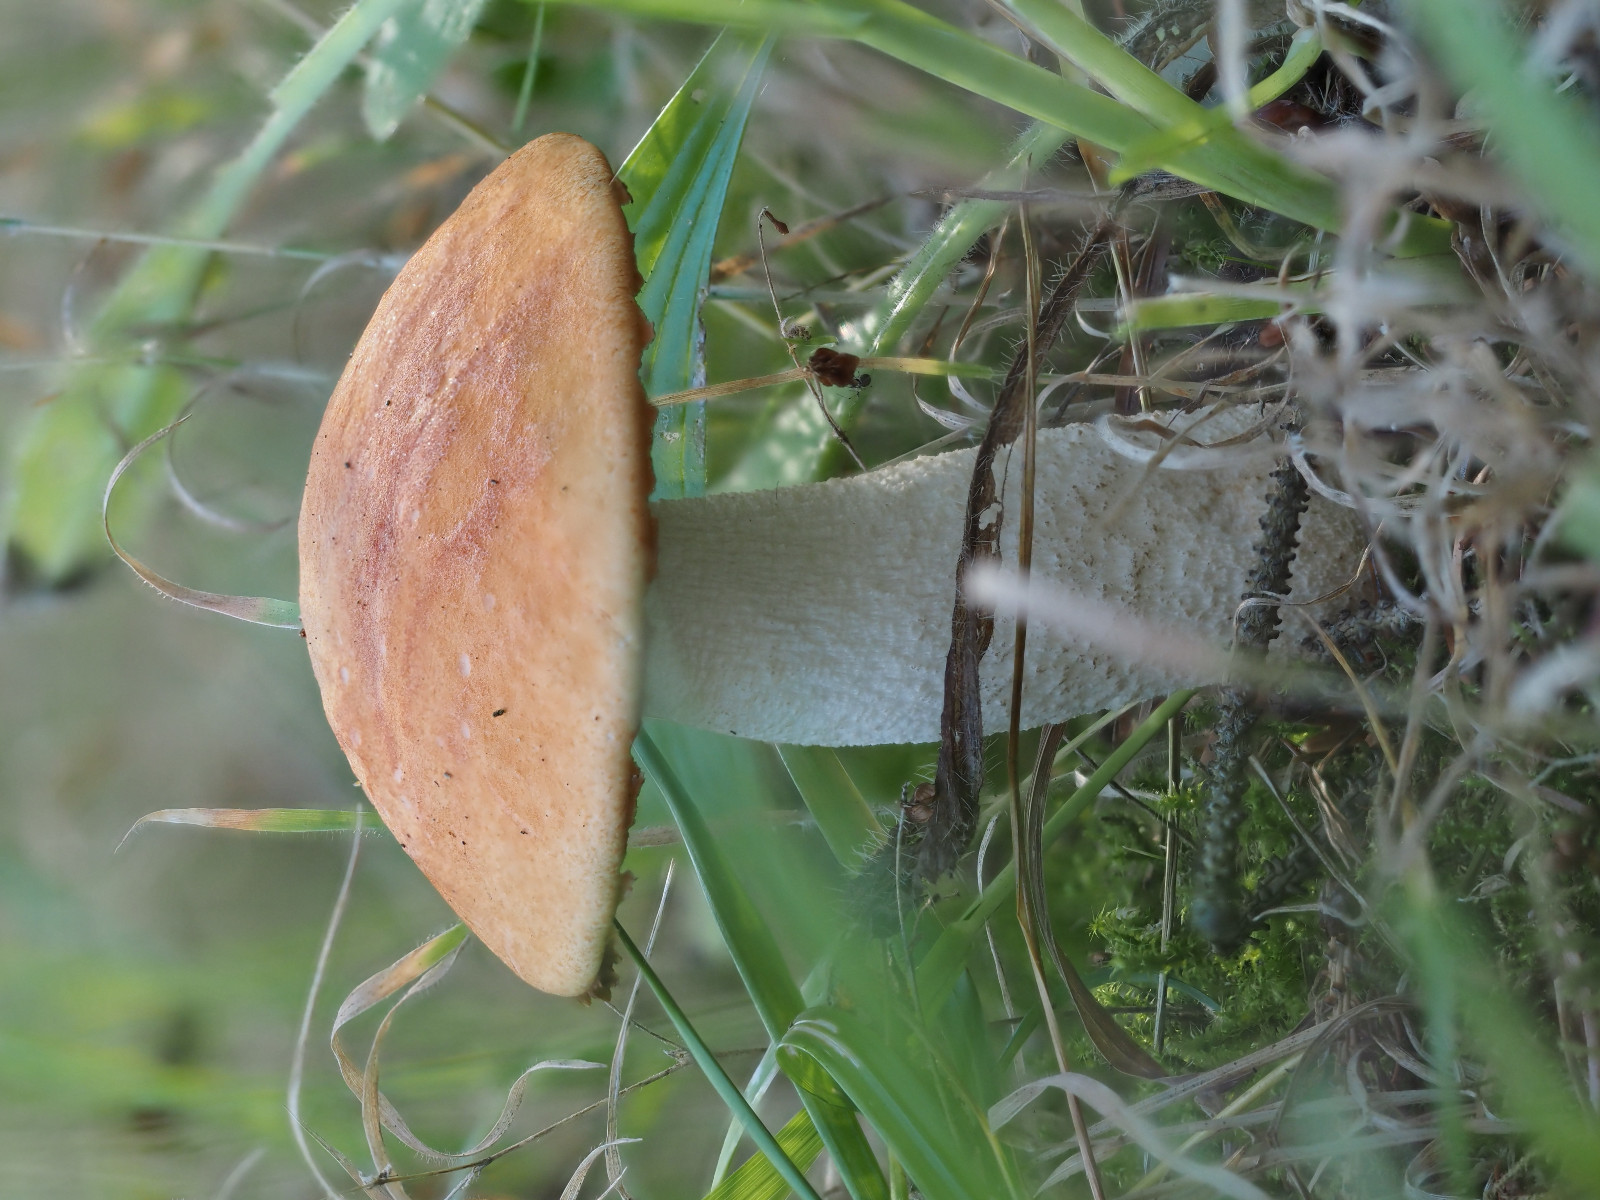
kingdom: Fungi
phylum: Basidiomycota
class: Agaricomycetes
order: Boletales
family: Boletaceae
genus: Leccinum
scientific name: Leccinum albostipitatum
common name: aspe-skælrørhat
